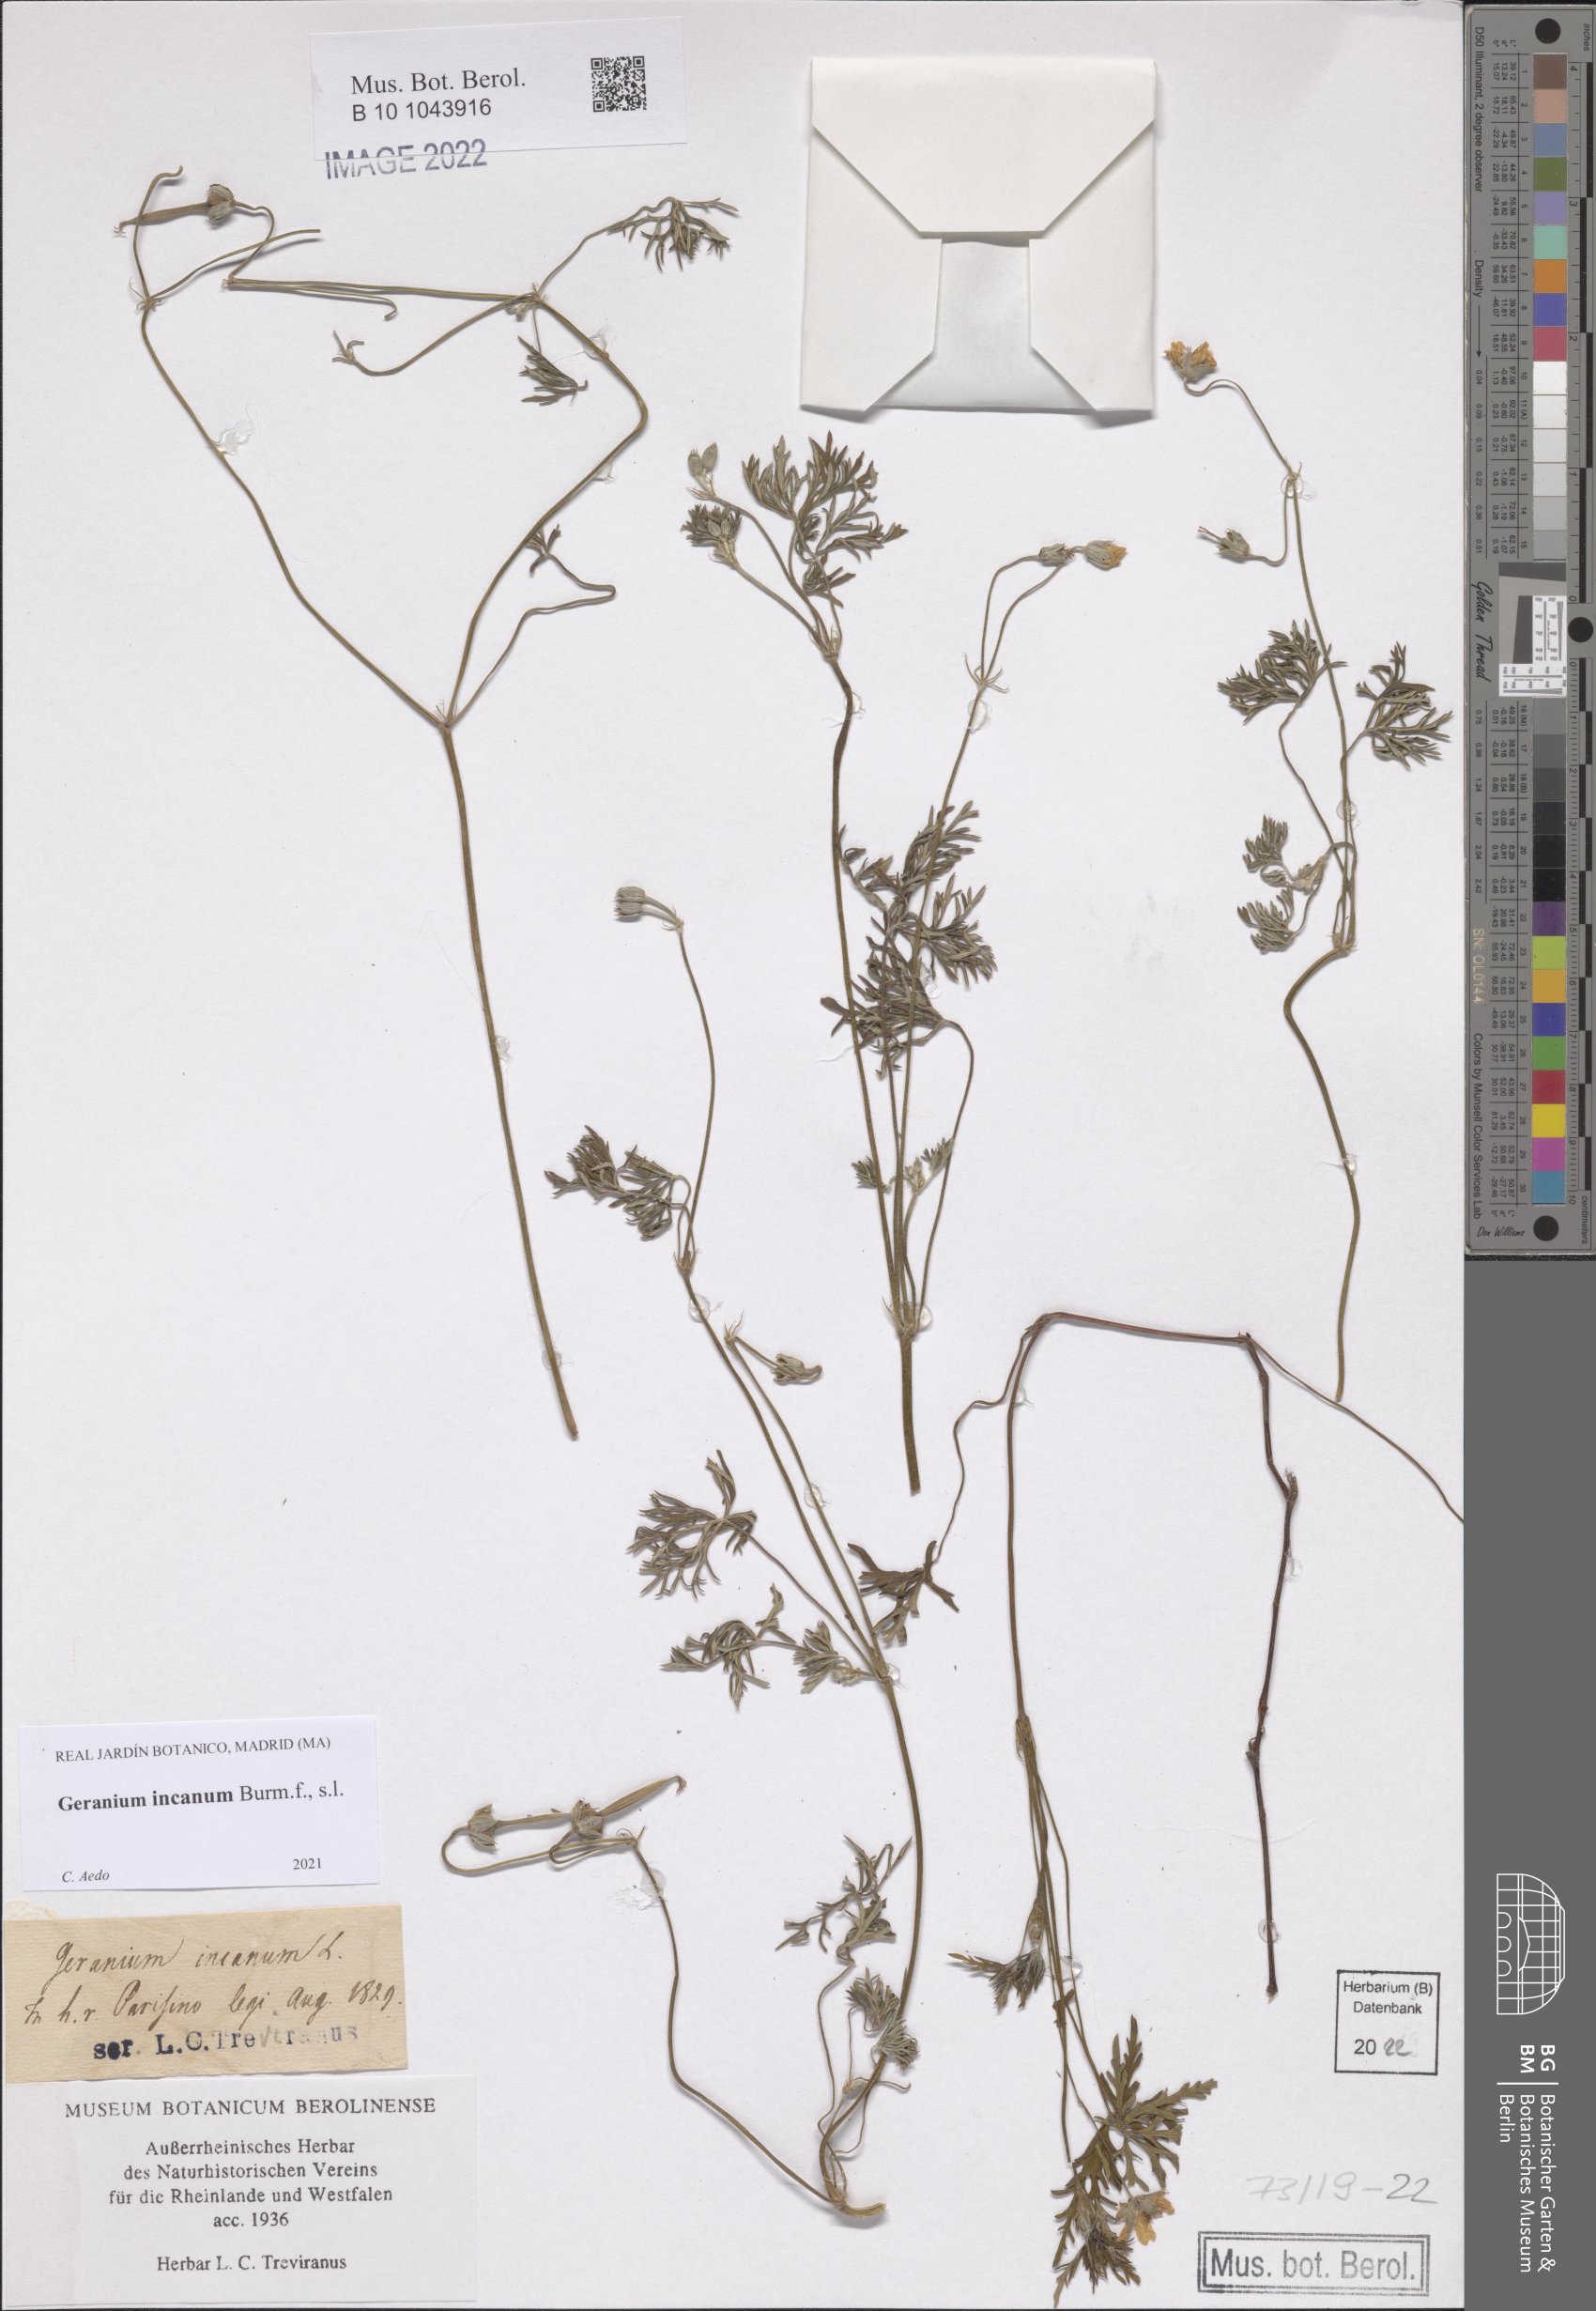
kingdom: Plantae
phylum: Tracheophyta
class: Magnoliopsida
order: Geraniales
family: Geraniaceae
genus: Geranium
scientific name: Geranium incanum
